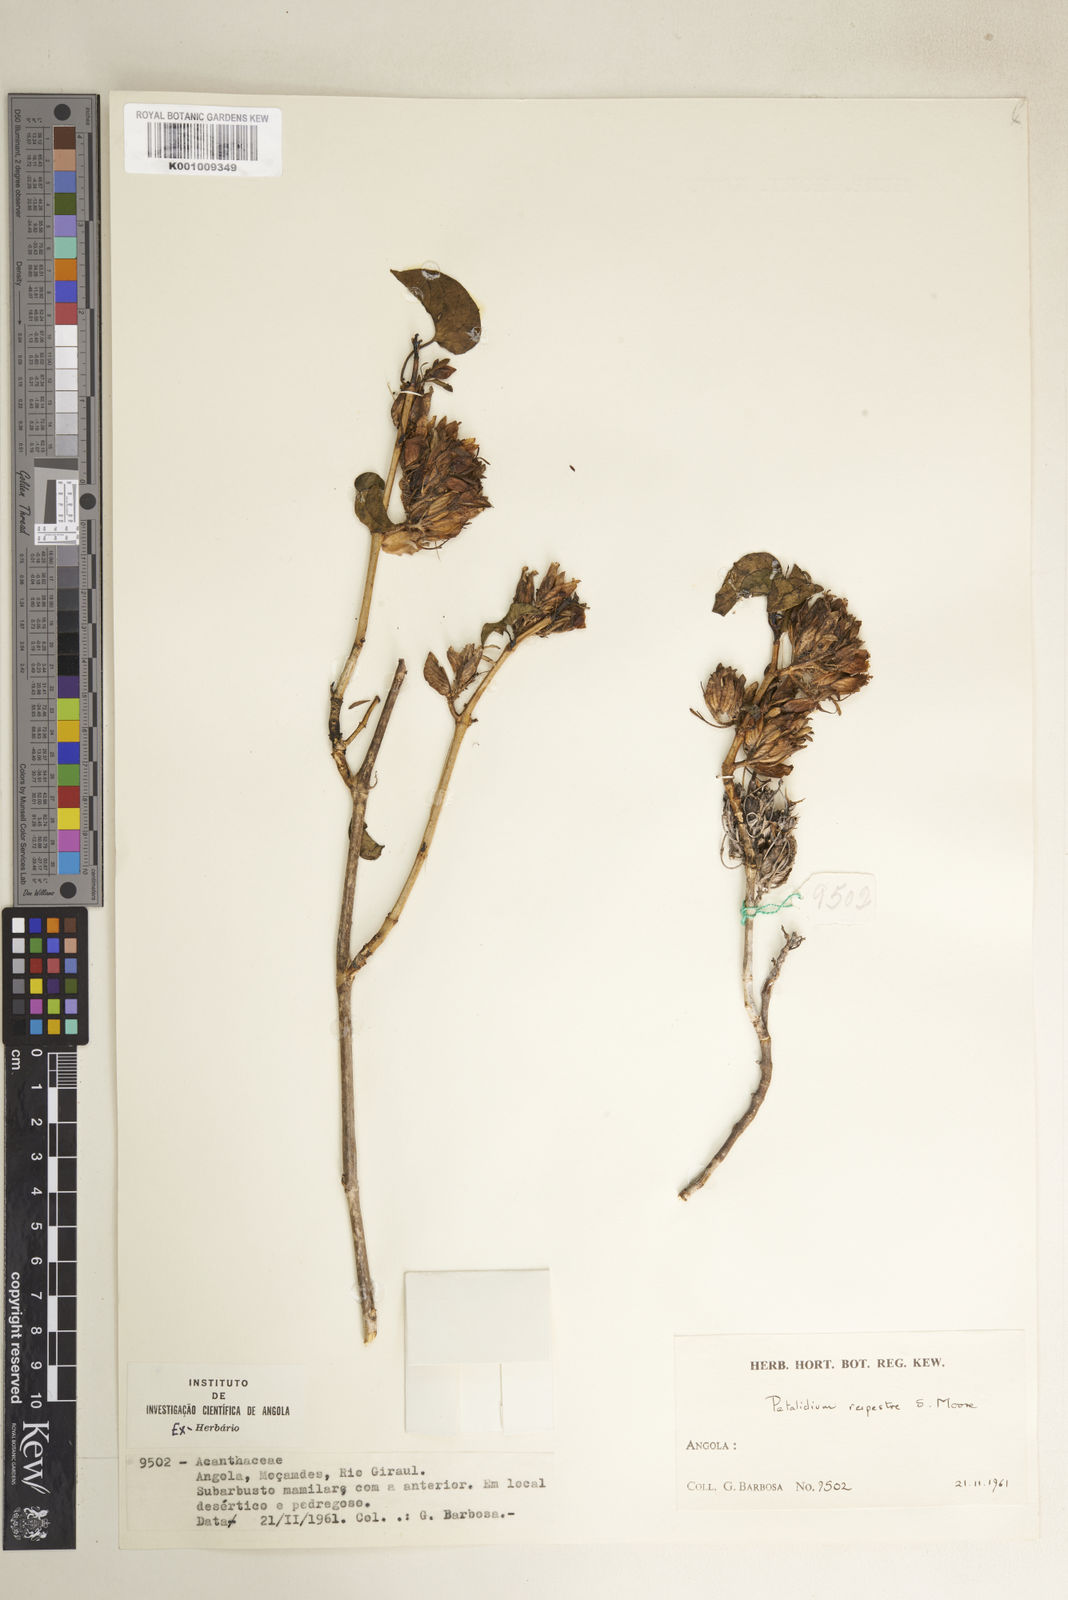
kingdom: Plantae
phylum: Tracheophyta
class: Magnoliopsida
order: Lamiales
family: Acanthaceae
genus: Petalidium
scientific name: Petalidium rupestre
